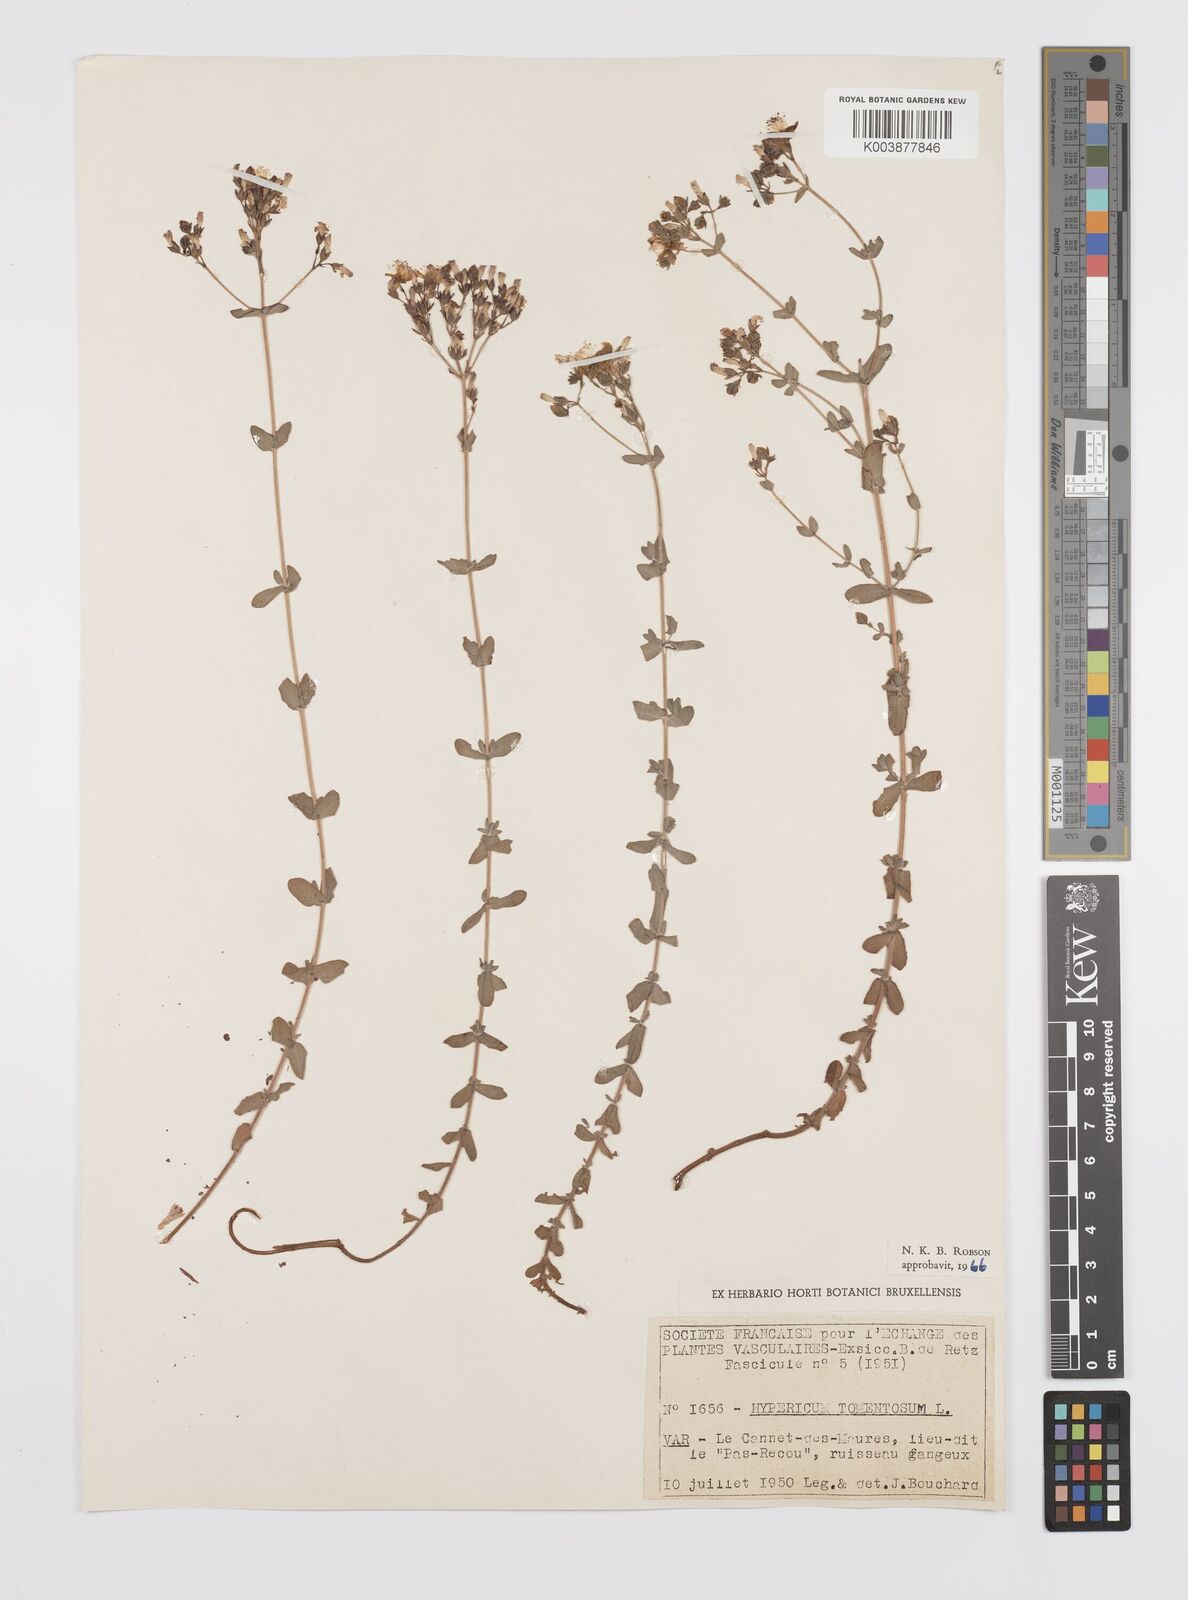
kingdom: Plantae
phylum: Tracheophyta
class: Magnoliopsida
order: Malpighiales
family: Hypericaceae
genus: Hypericum
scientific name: Hypericum tomentosum
